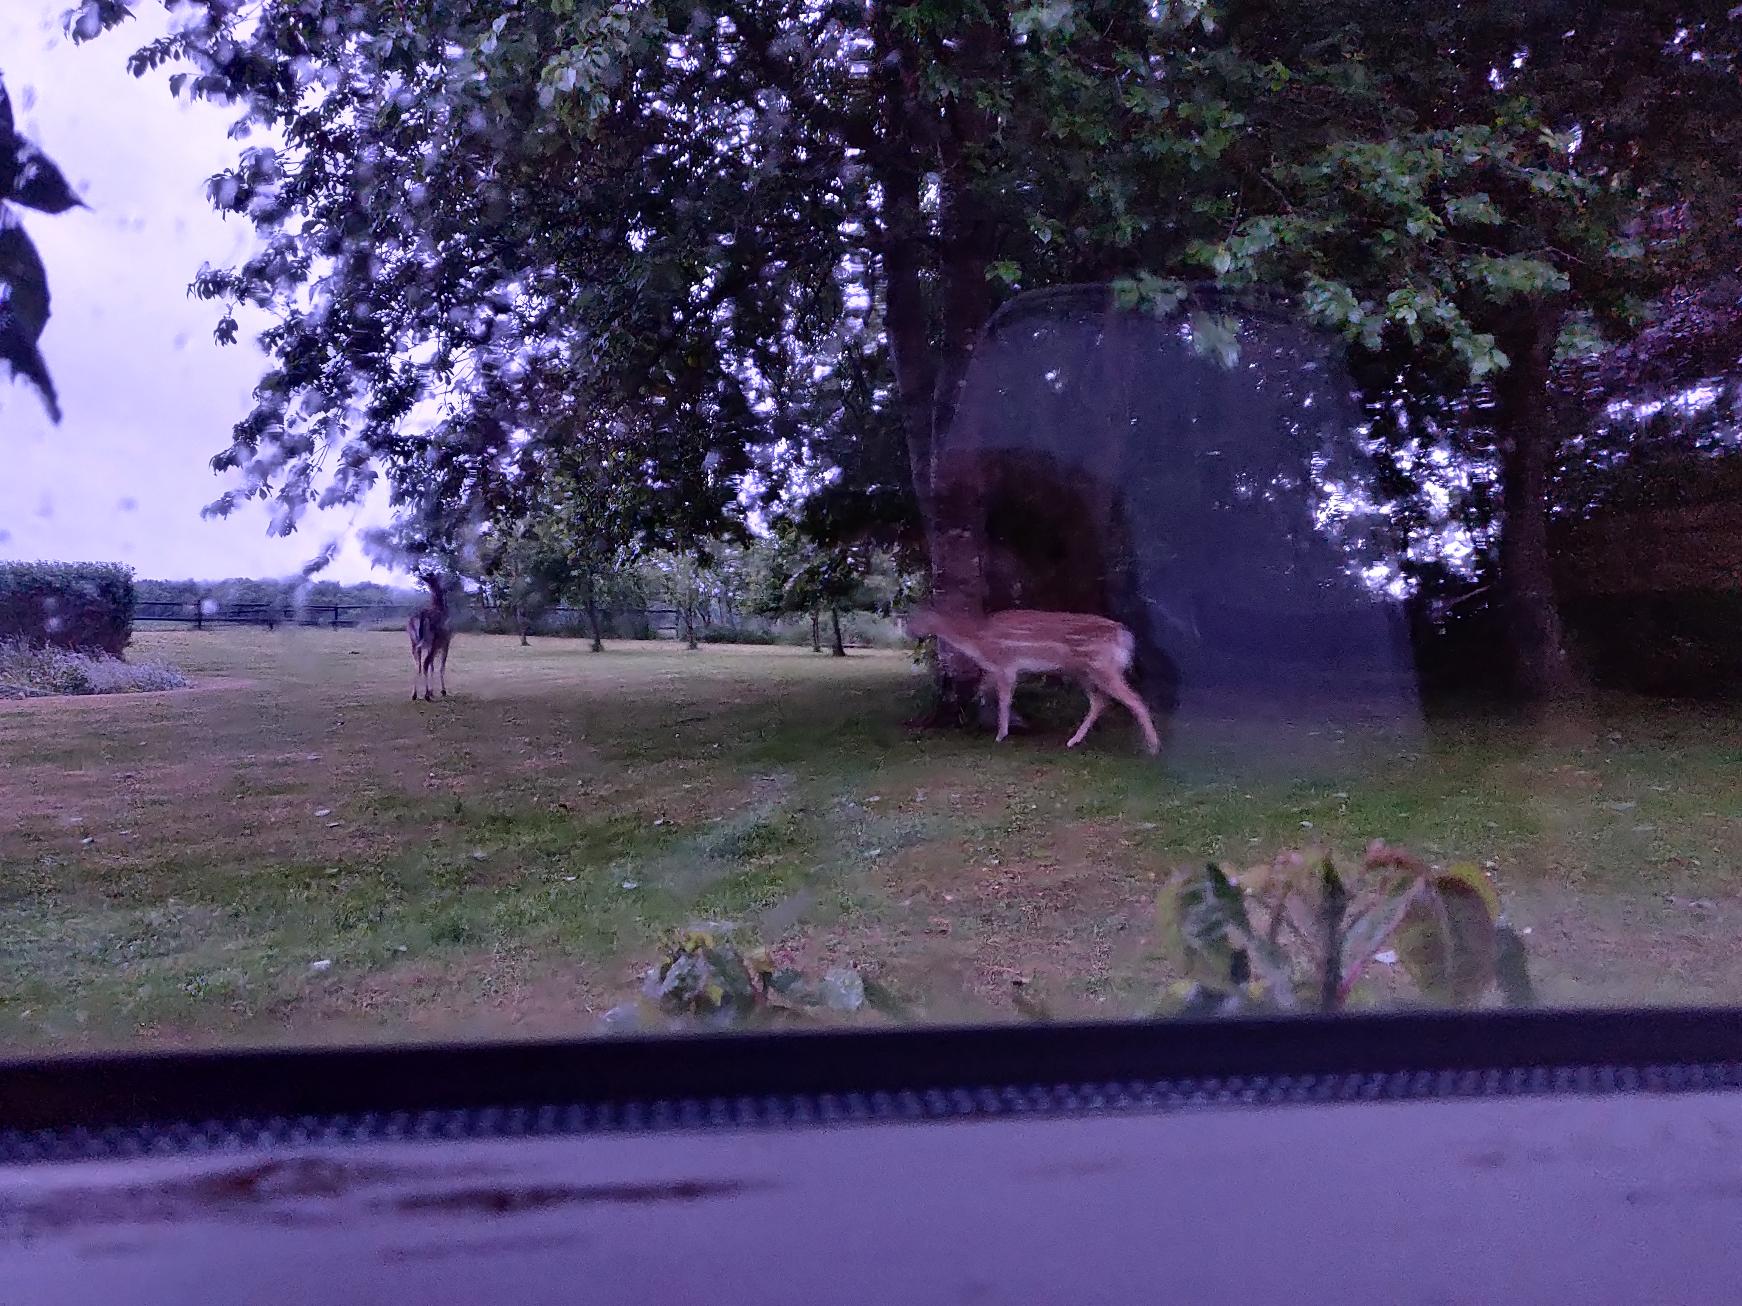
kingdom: Animalia
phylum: Chordata
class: Mammalia
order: Artiodactyla
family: Cervidae
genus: Dama
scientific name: Dama dama
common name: Dådyr
